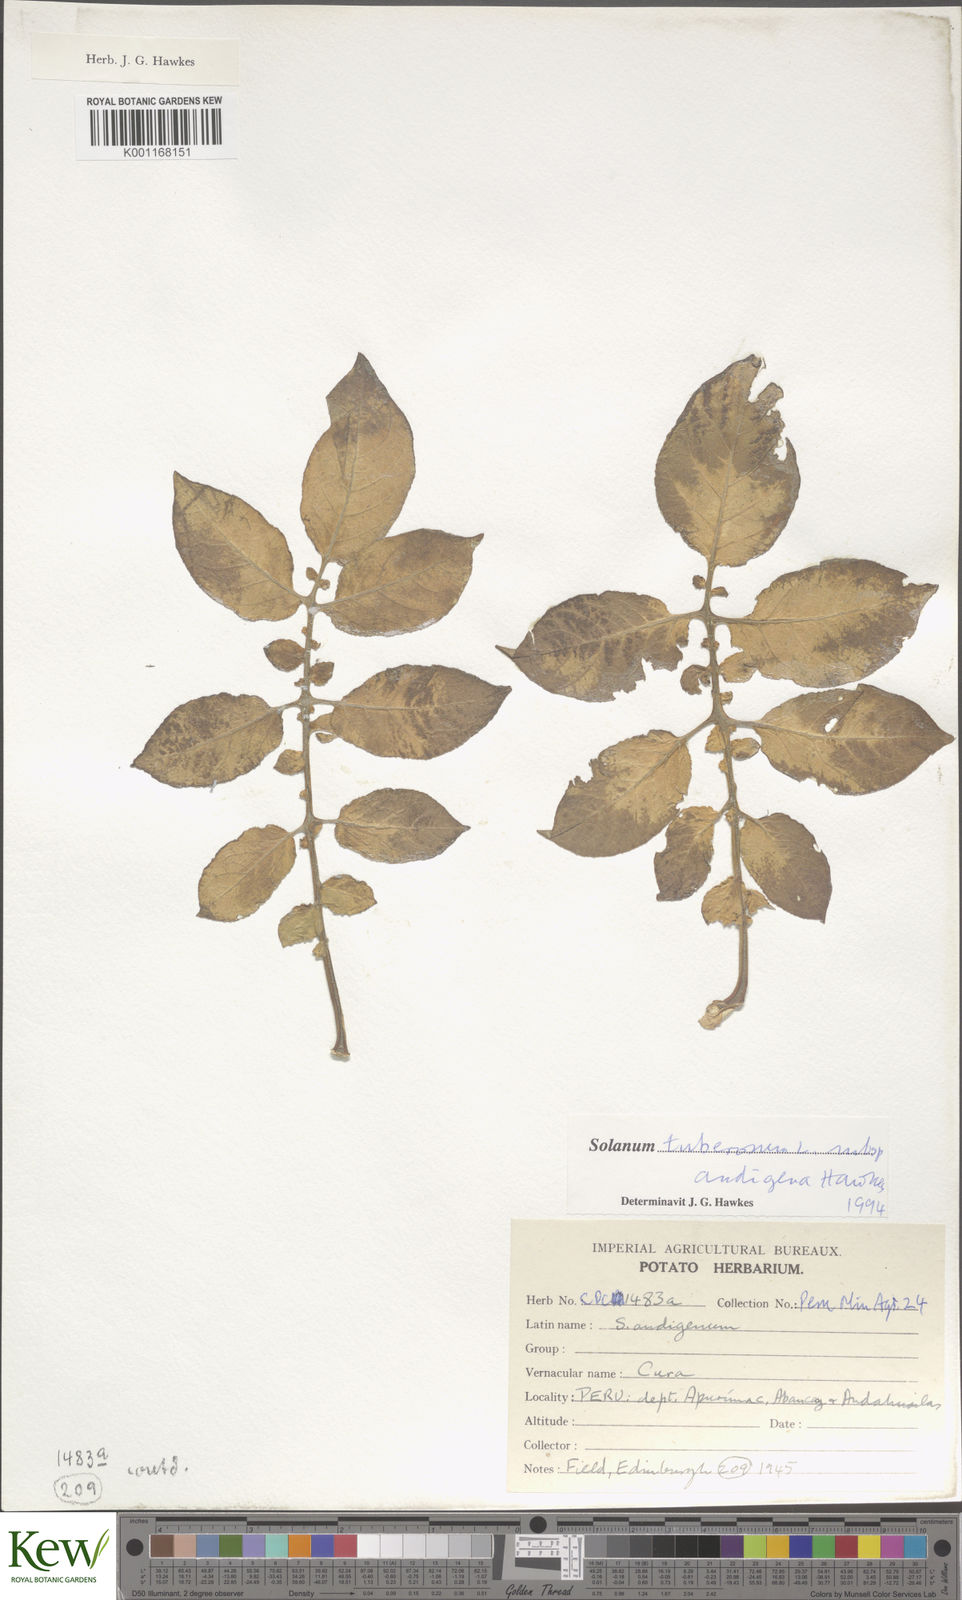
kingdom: Plantae
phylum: Tracheophyta
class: Magnoliopsida
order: Solanales
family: Solanaceae
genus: Solanum
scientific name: Solanum tuberosum
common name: Potato
